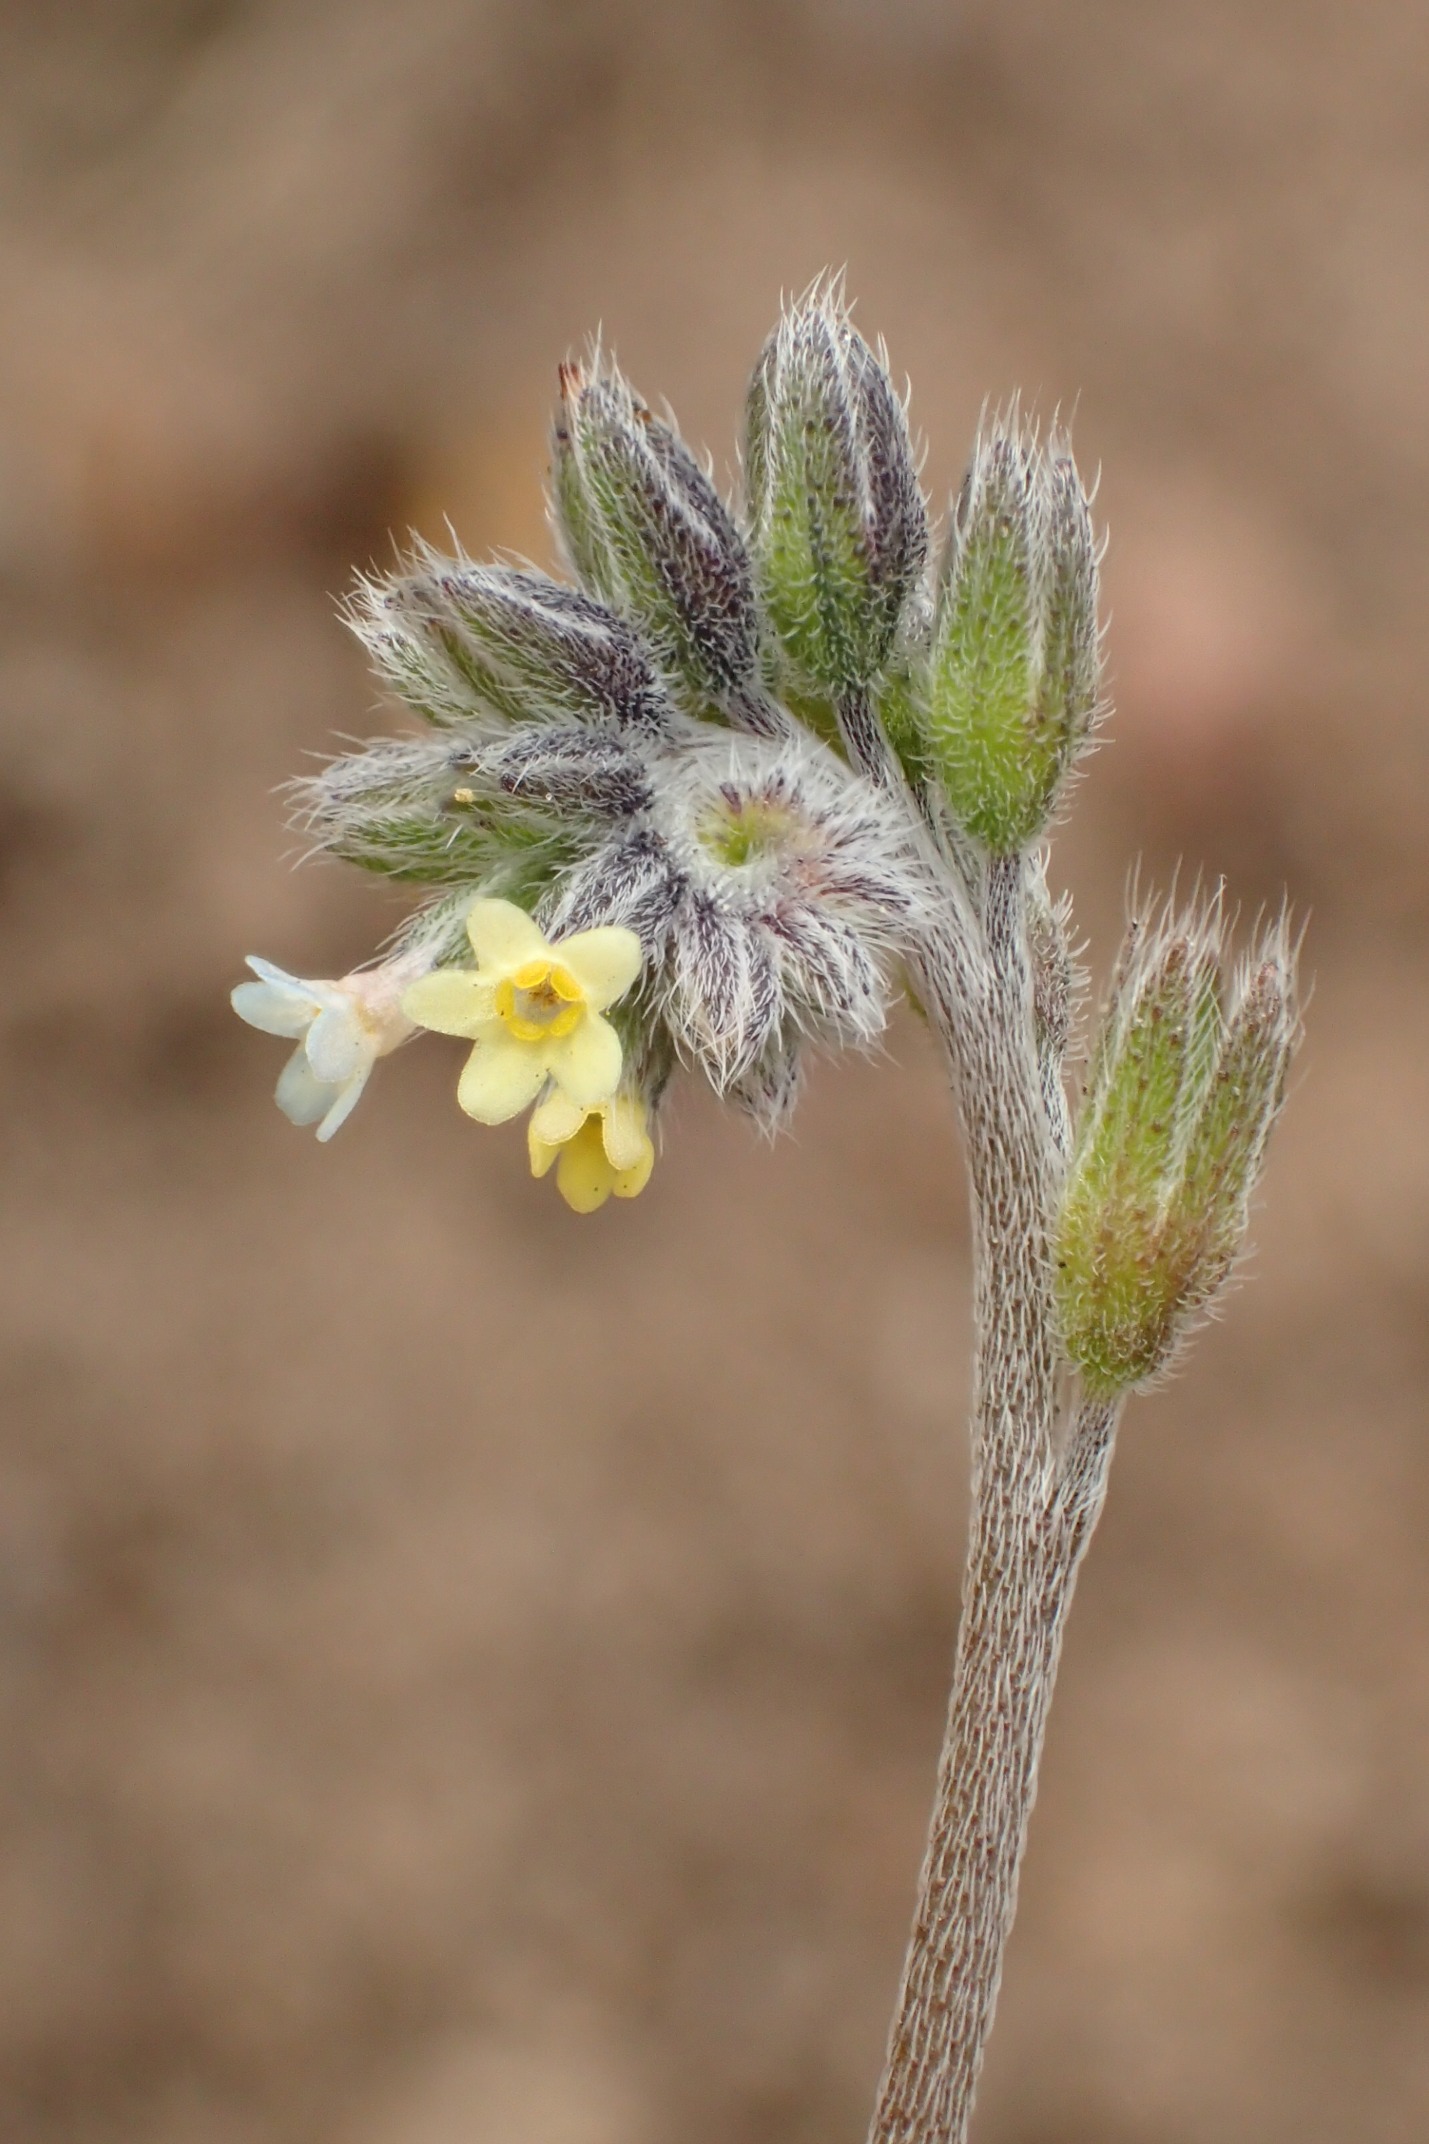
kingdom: Plantae
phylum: Tracheophyta
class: Magnoliopsida
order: Boraginales
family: Boraginaceae
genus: Myosotis
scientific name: Myosotis discolor
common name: Forskelligfarvet forglemmigej
